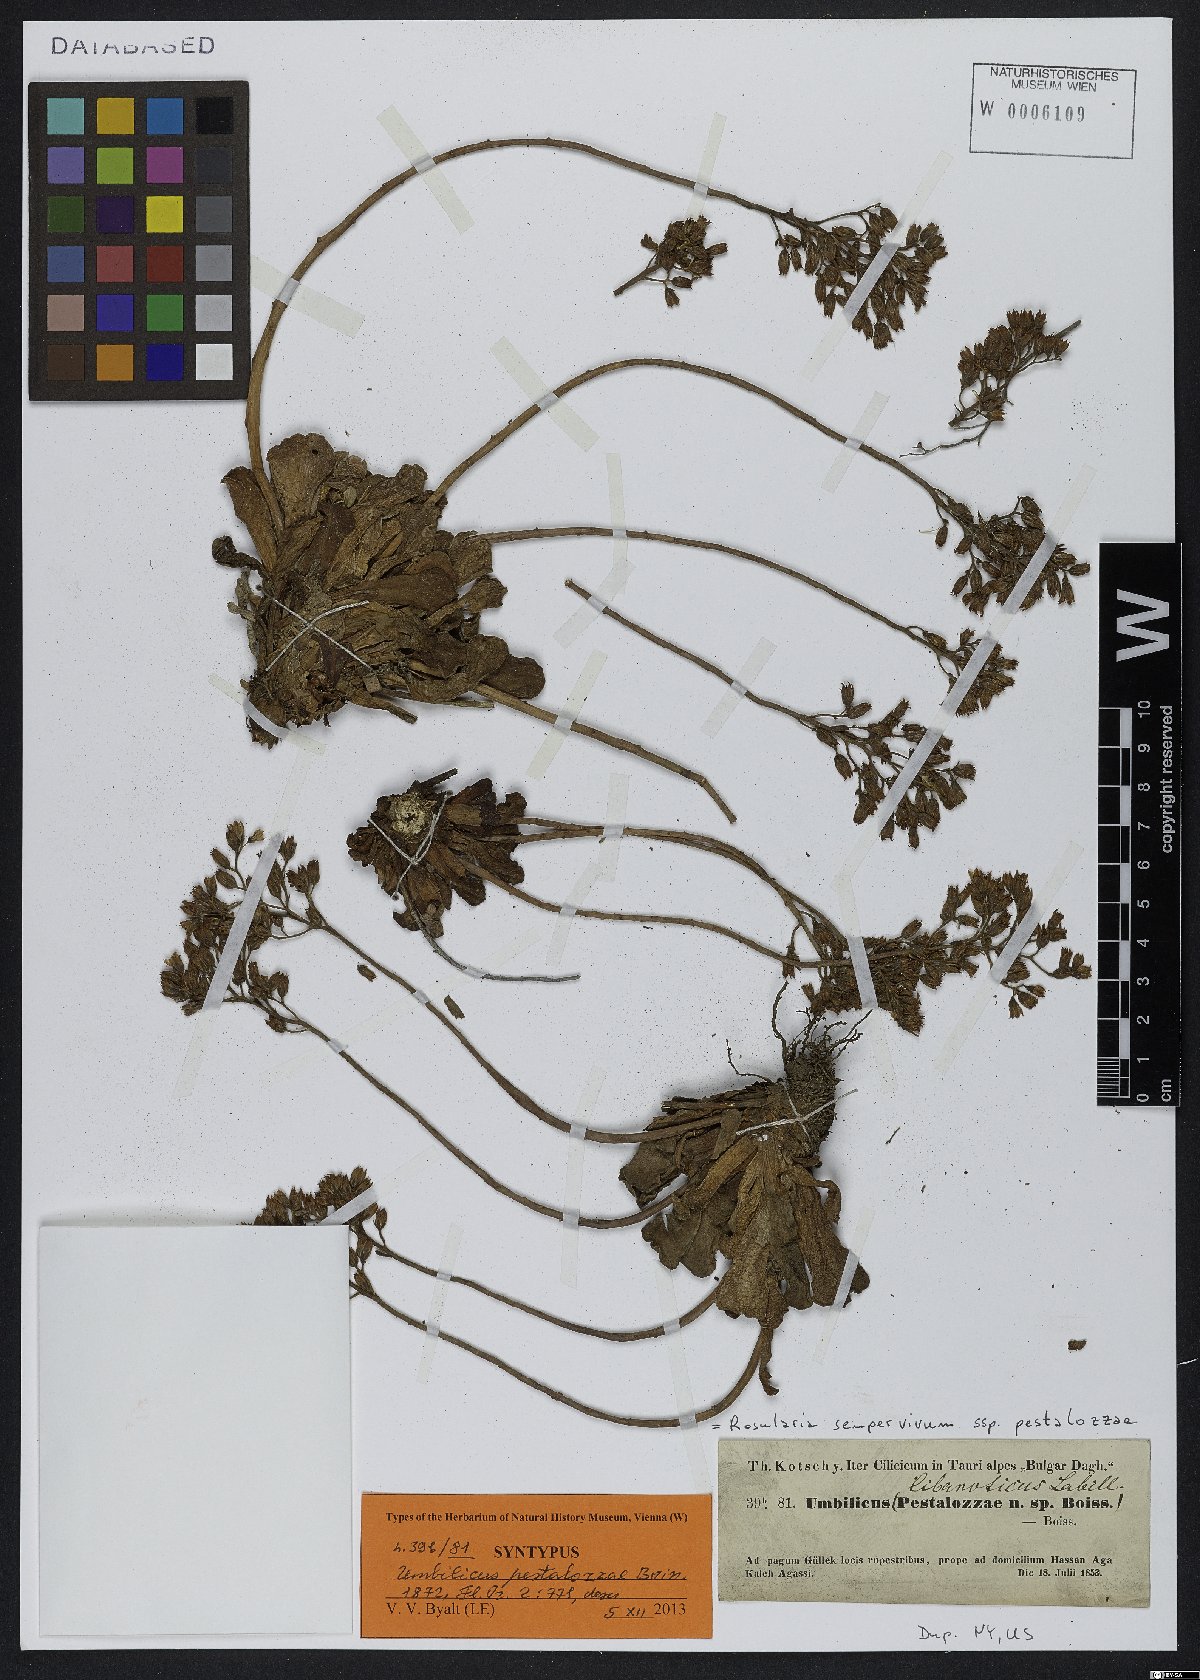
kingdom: Plantae
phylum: Tracheophyta
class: Magnoliopsida
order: Saxifragales
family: Crassulaceae
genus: Rosularia
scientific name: Rosularia sempervivum
